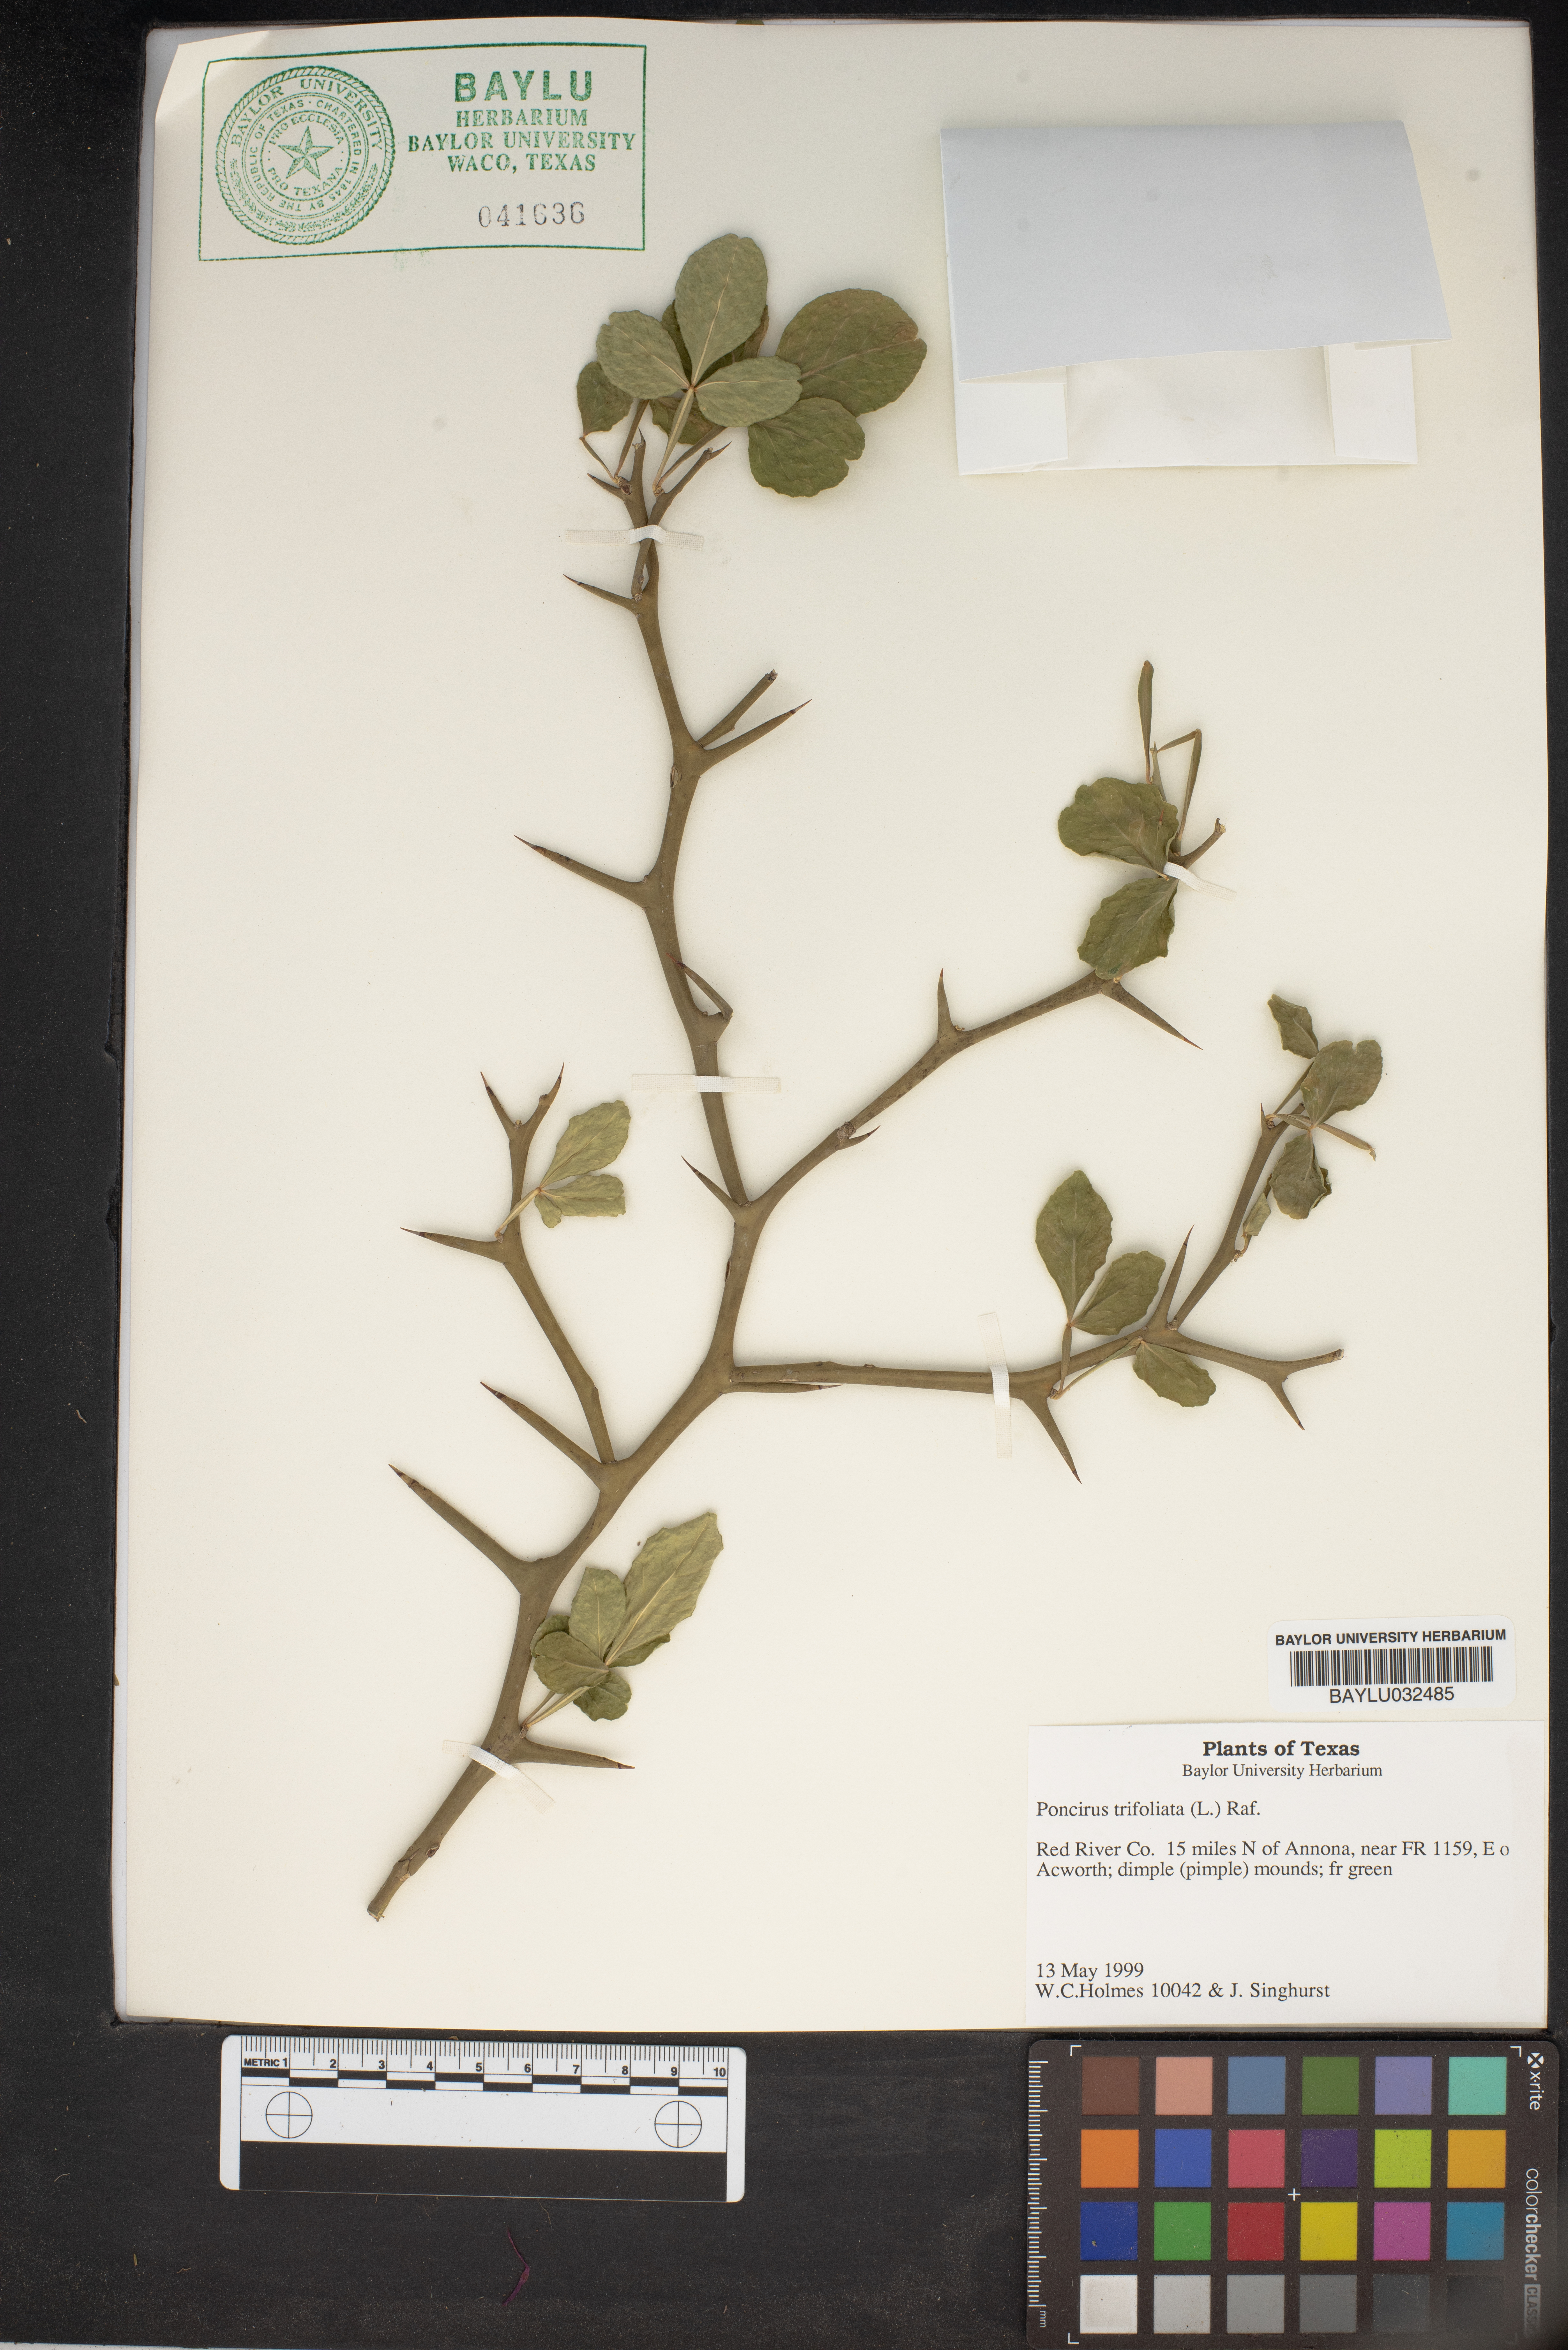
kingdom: Plantae
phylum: Tracheophyta
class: Magnoliopsida
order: Sapindales
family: Rutaceae
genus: Citrus
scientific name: Citrus trifoliata
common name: Japanese bitter-orange
